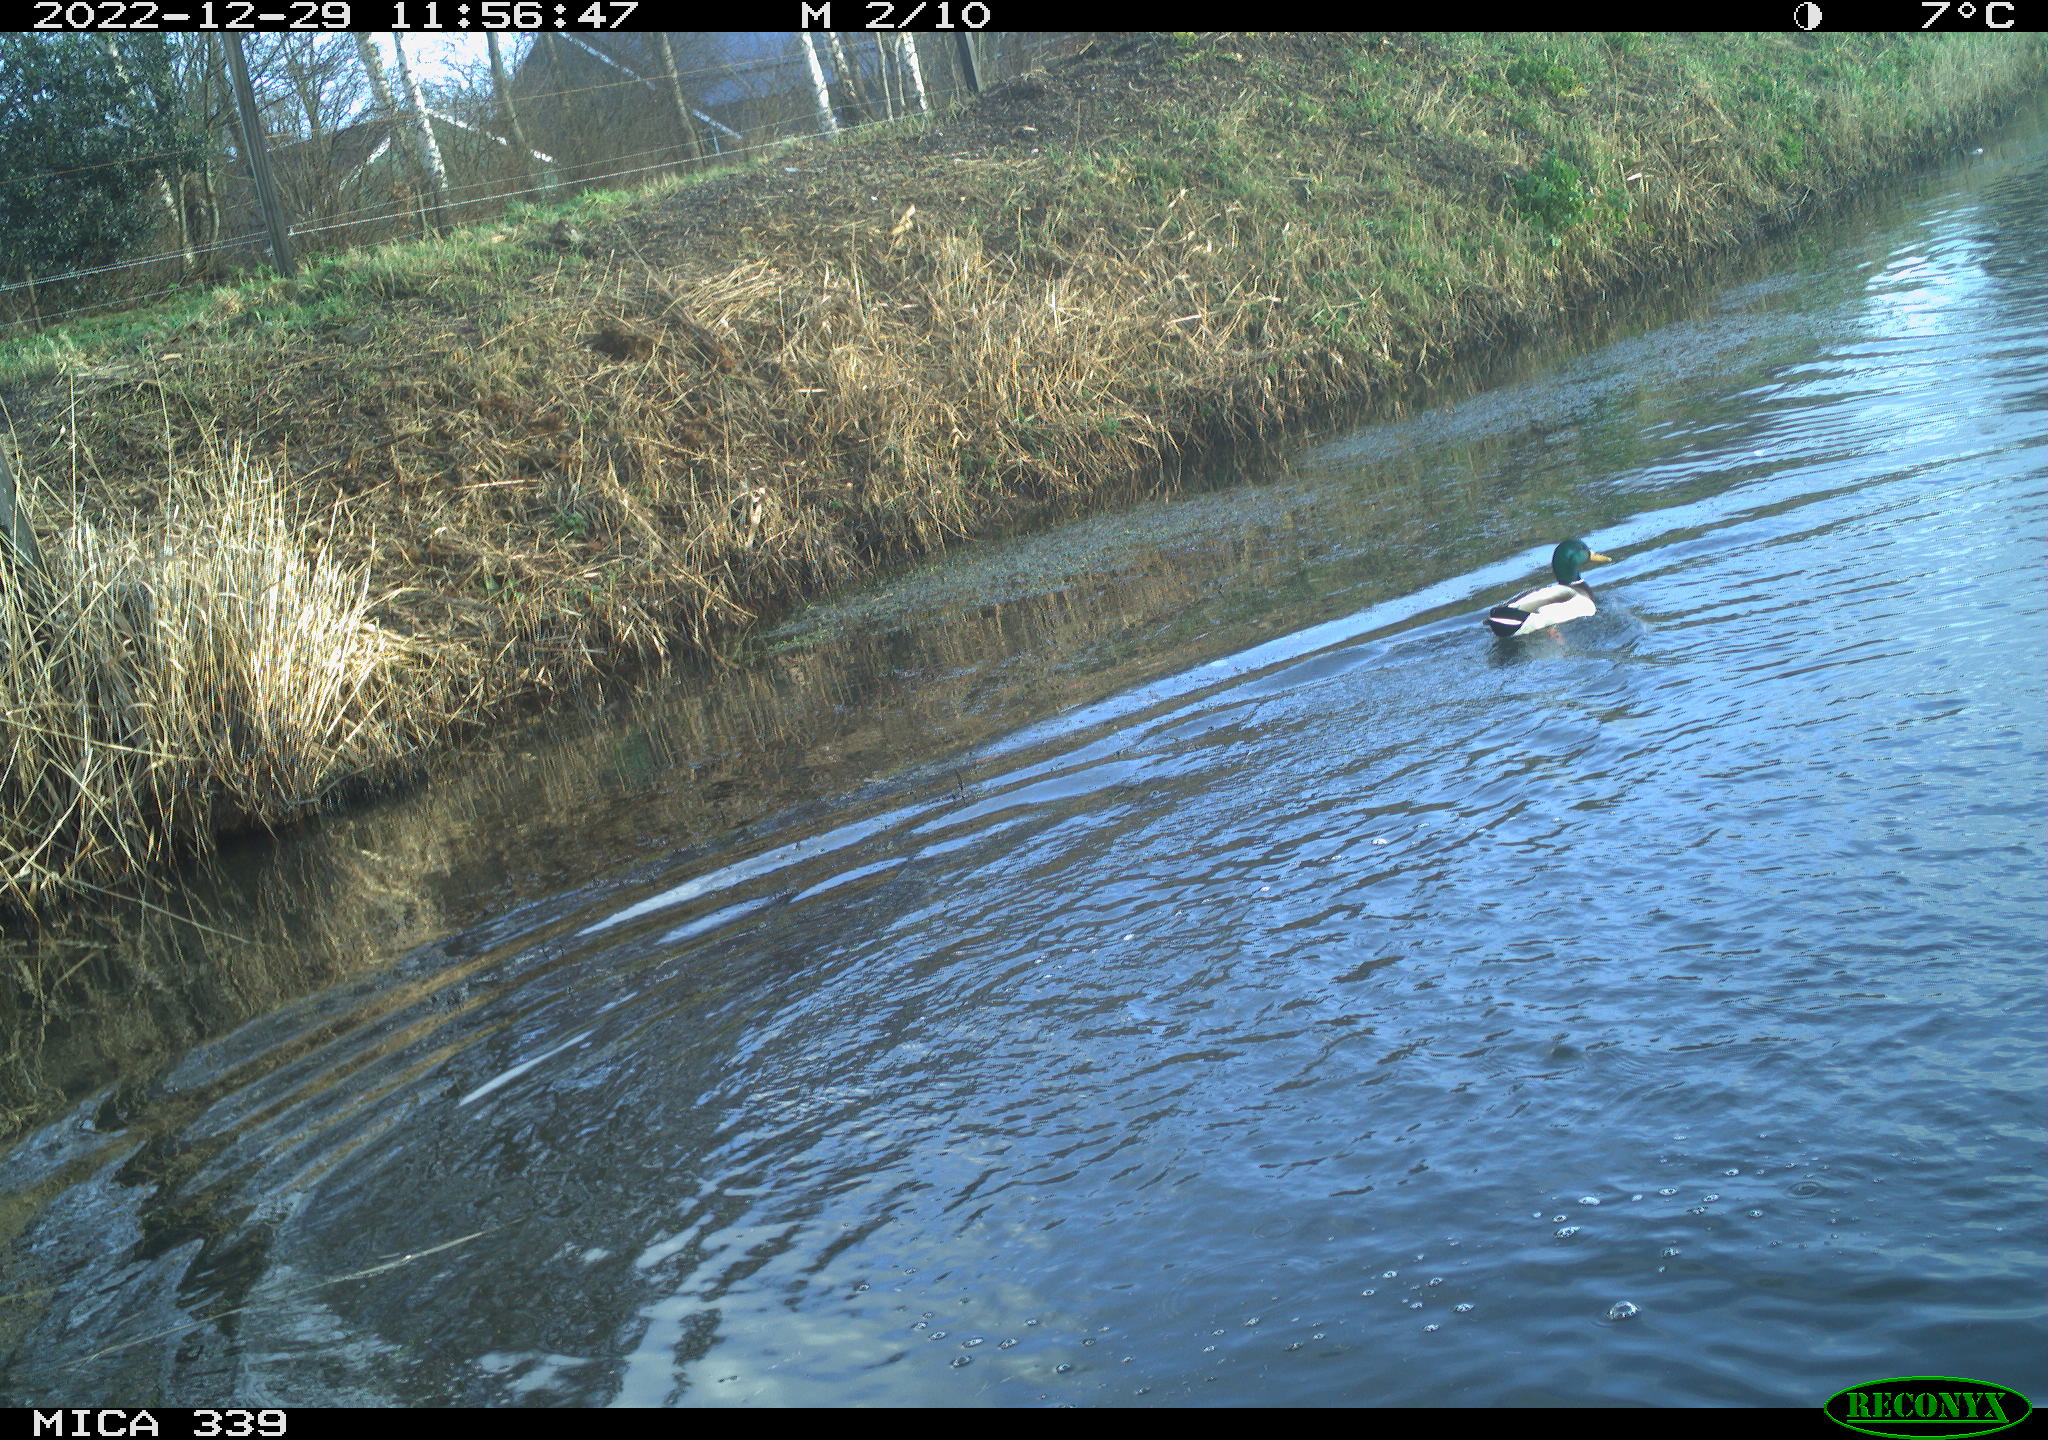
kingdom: Animalia
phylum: Chordata
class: Aves
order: Anseriformes
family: Anatidae
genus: Anas
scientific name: Anas
